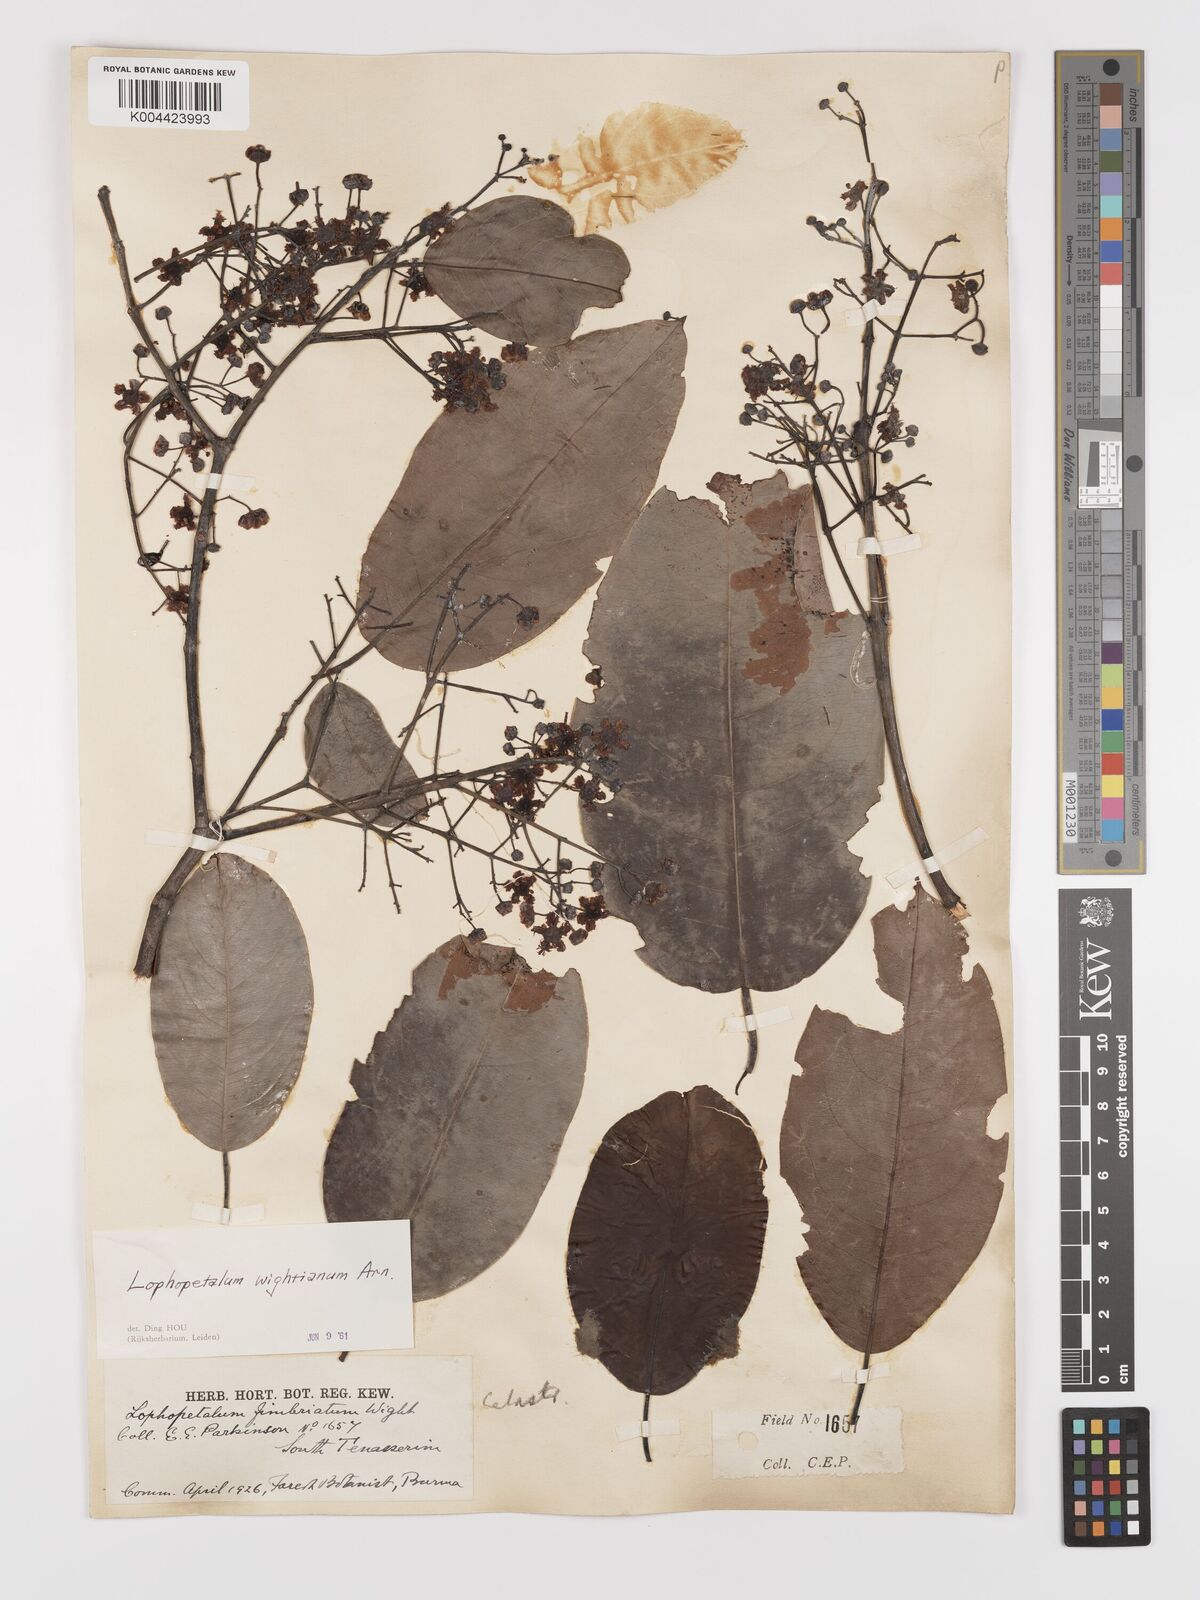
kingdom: Plantae
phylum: Tracheophyta
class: Magnoliopsida
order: Celastrales
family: Celastraceae
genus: Lophopetalum
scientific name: Lophopetalum wightianum
